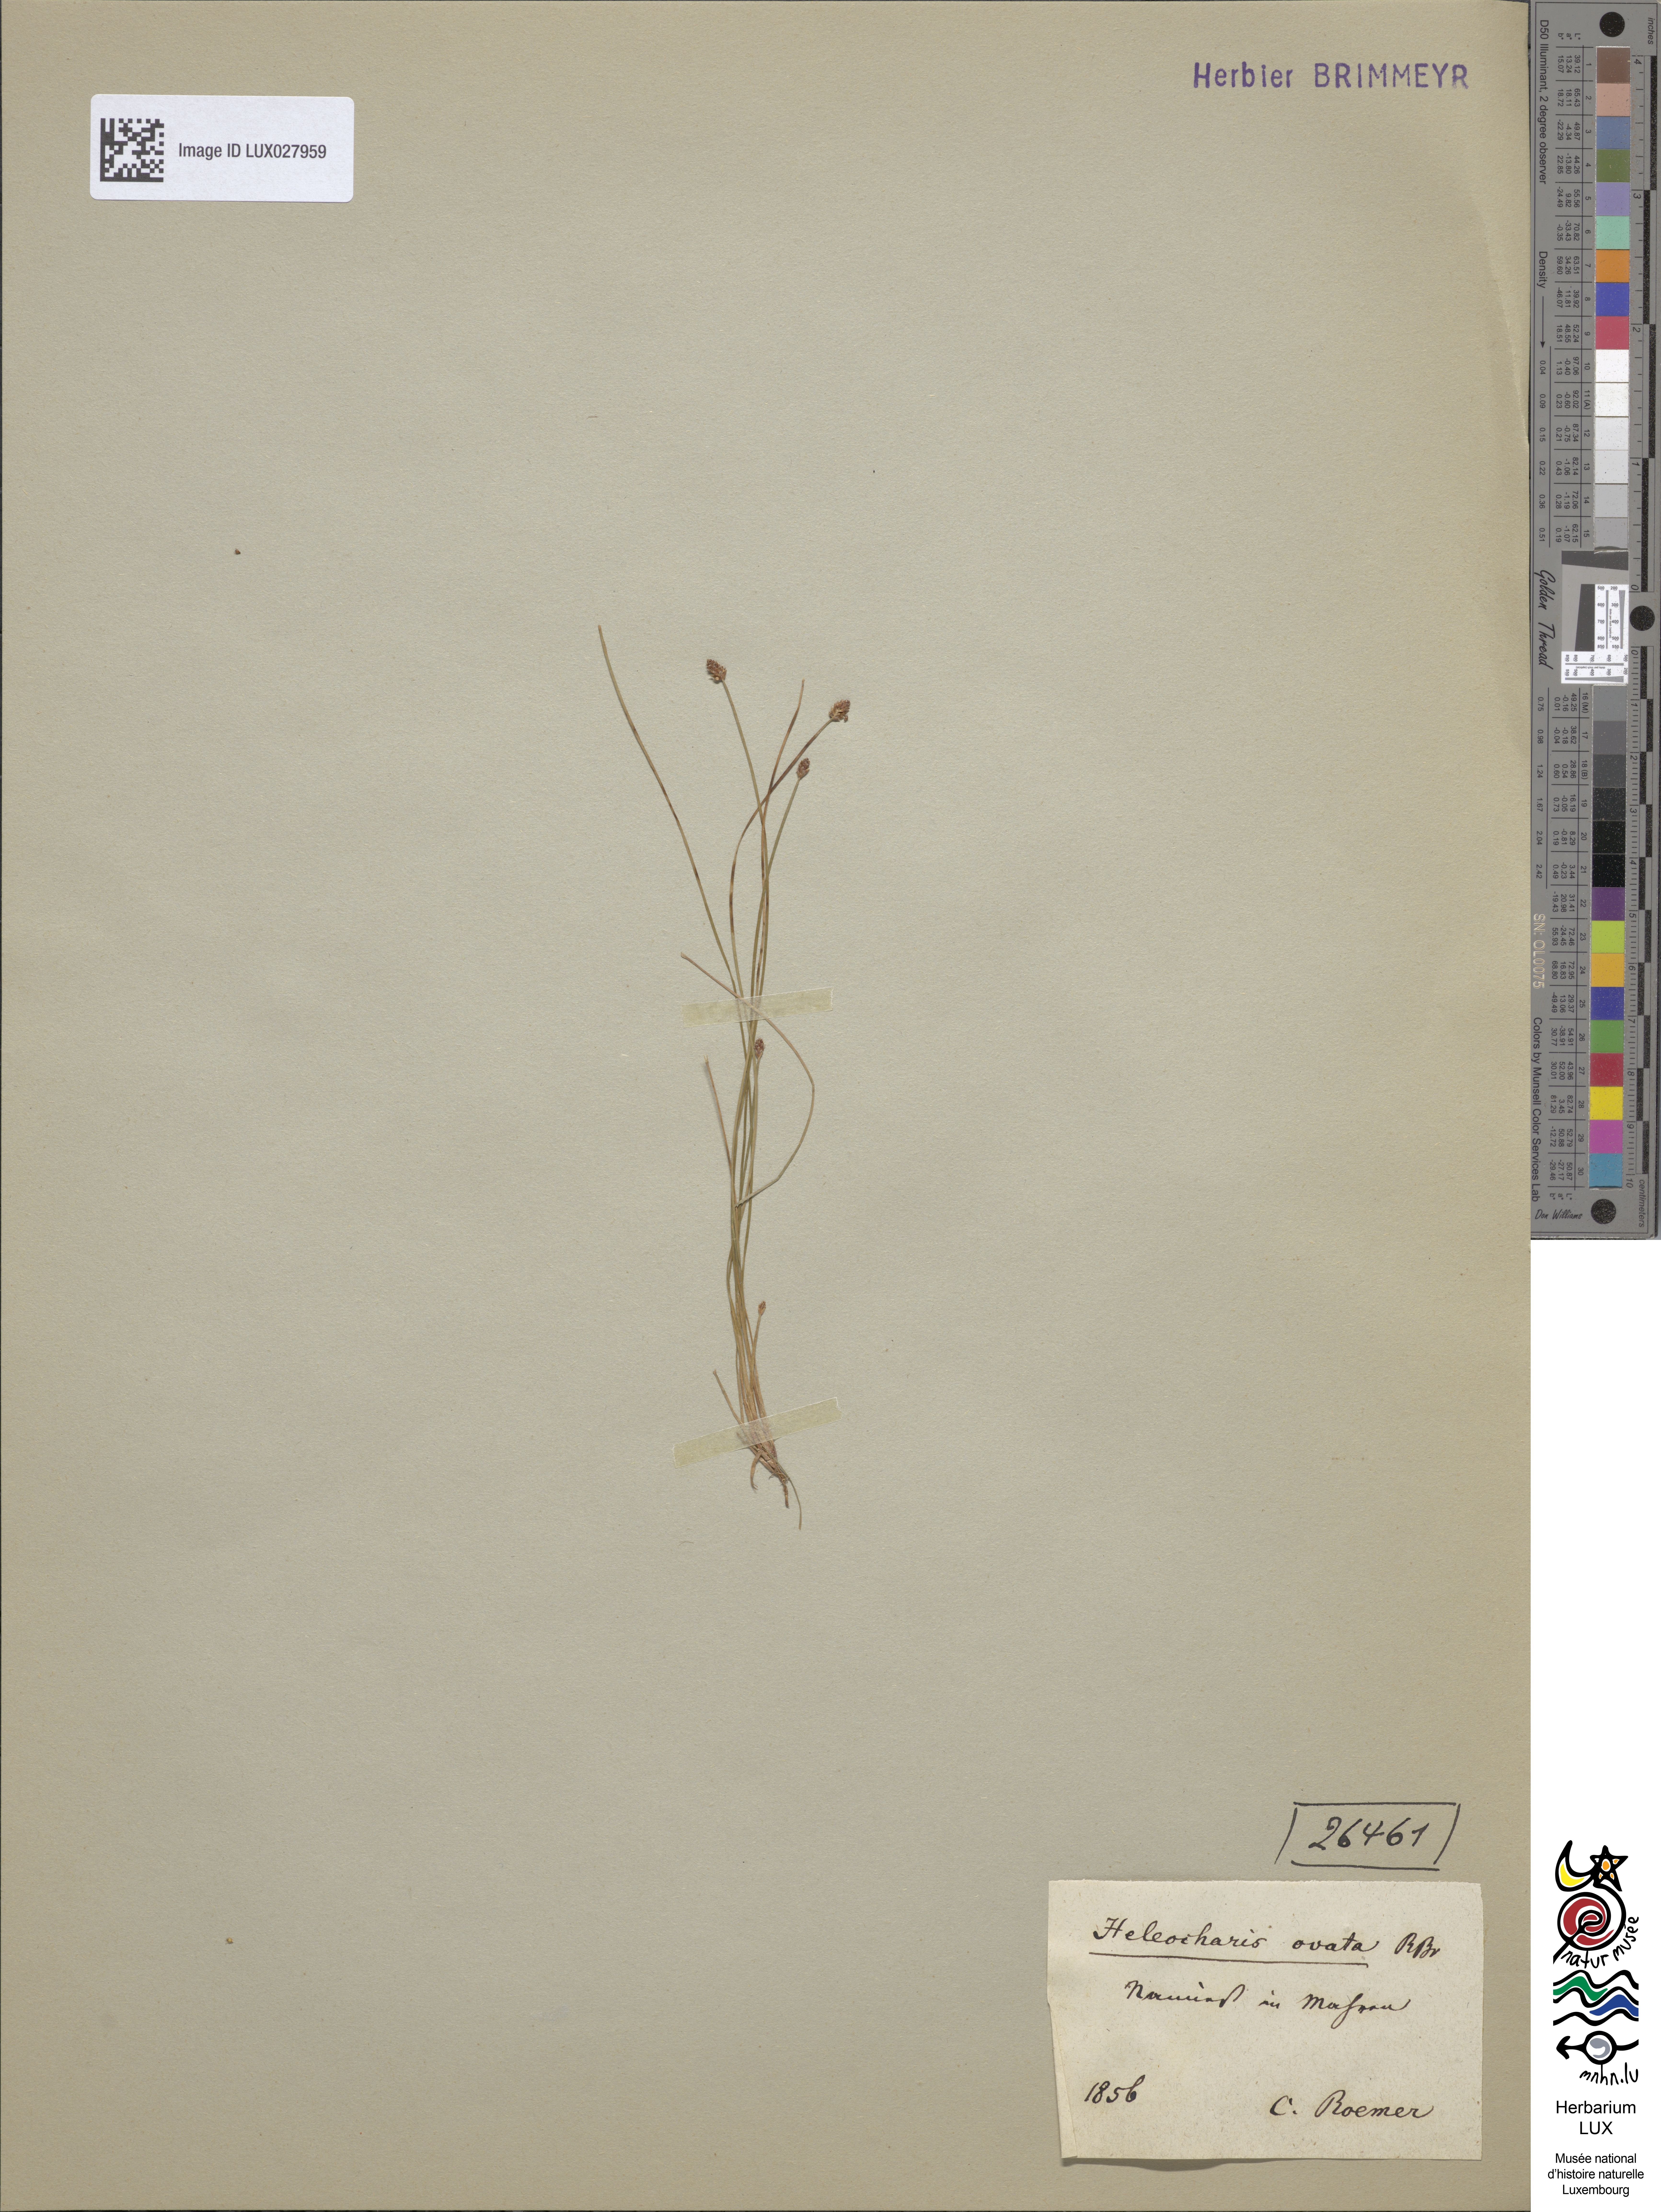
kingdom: Plantae
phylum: Tracheophyta
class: Liliopsida
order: Poales
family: Cyperaceae
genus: Eleocharis
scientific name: Eleocharis ovata
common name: Oval spike-rush
